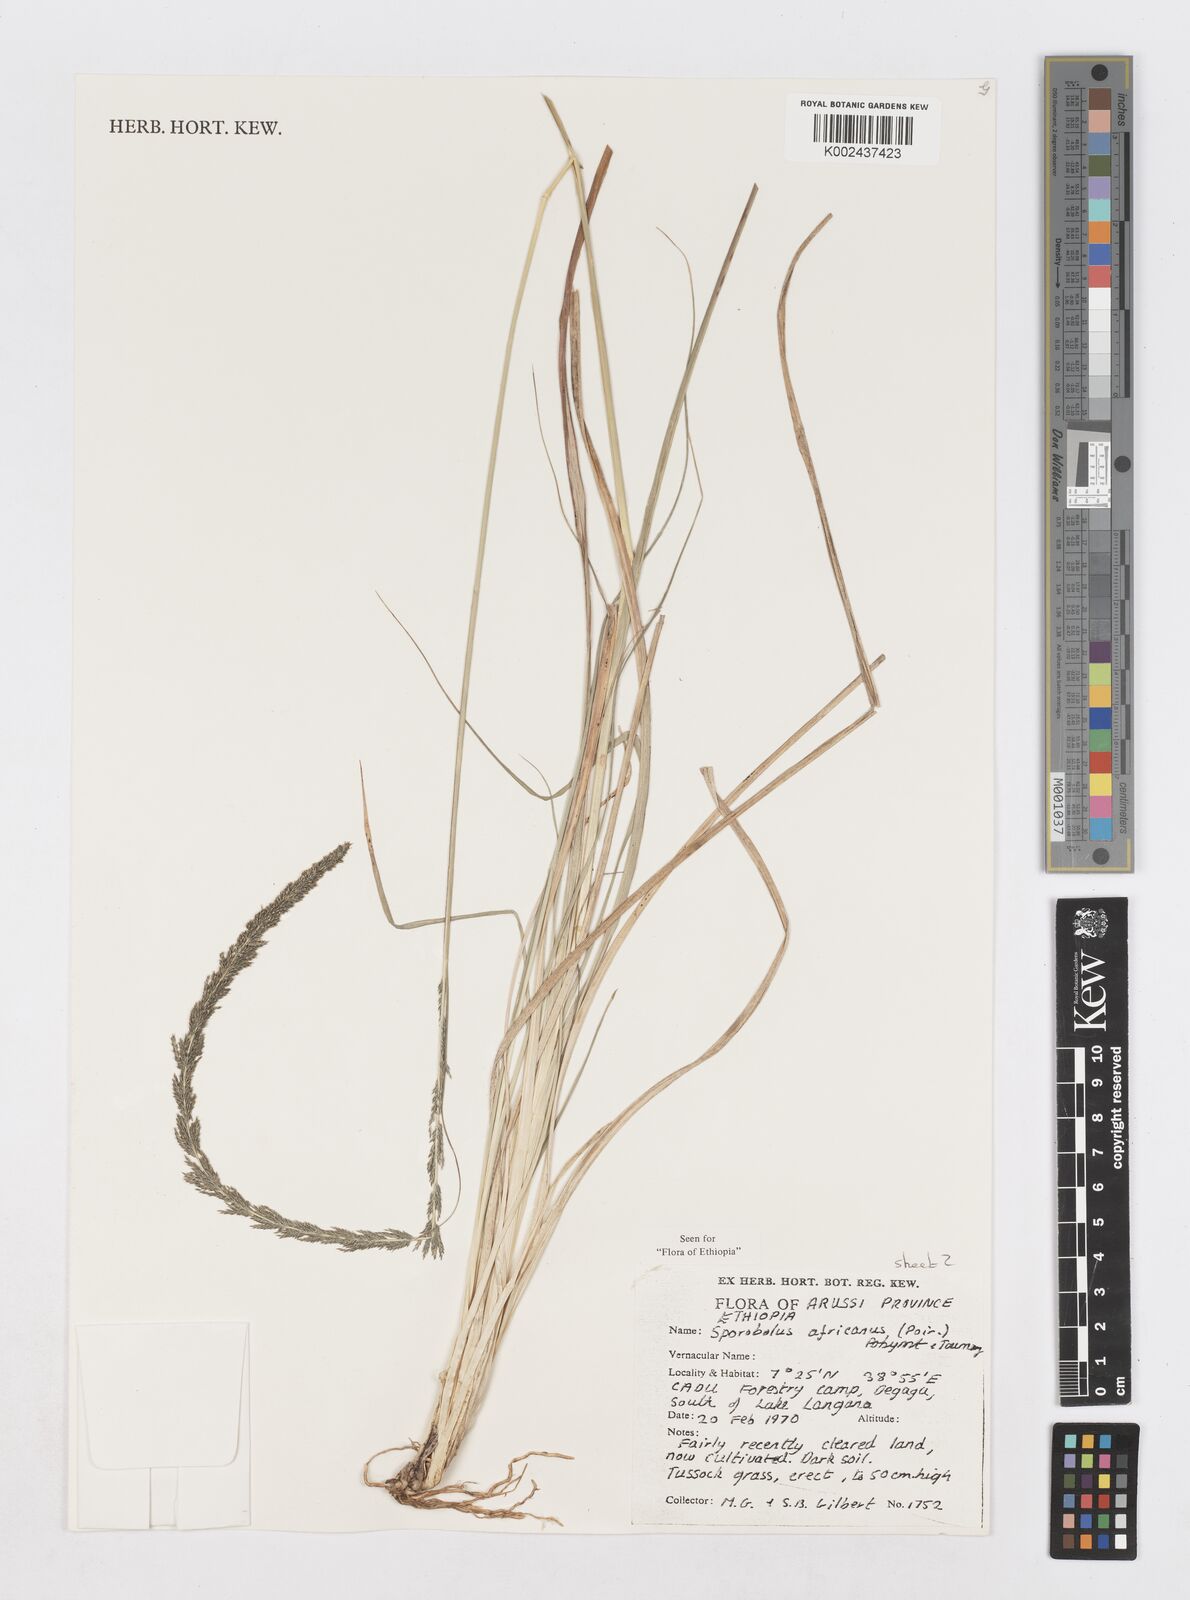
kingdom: Plantae
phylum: Tracheophyta
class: Liliopsida
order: Poales
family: Poaceae
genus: Sporobolus
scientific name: Sporobolus africanus
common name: African dropseed
